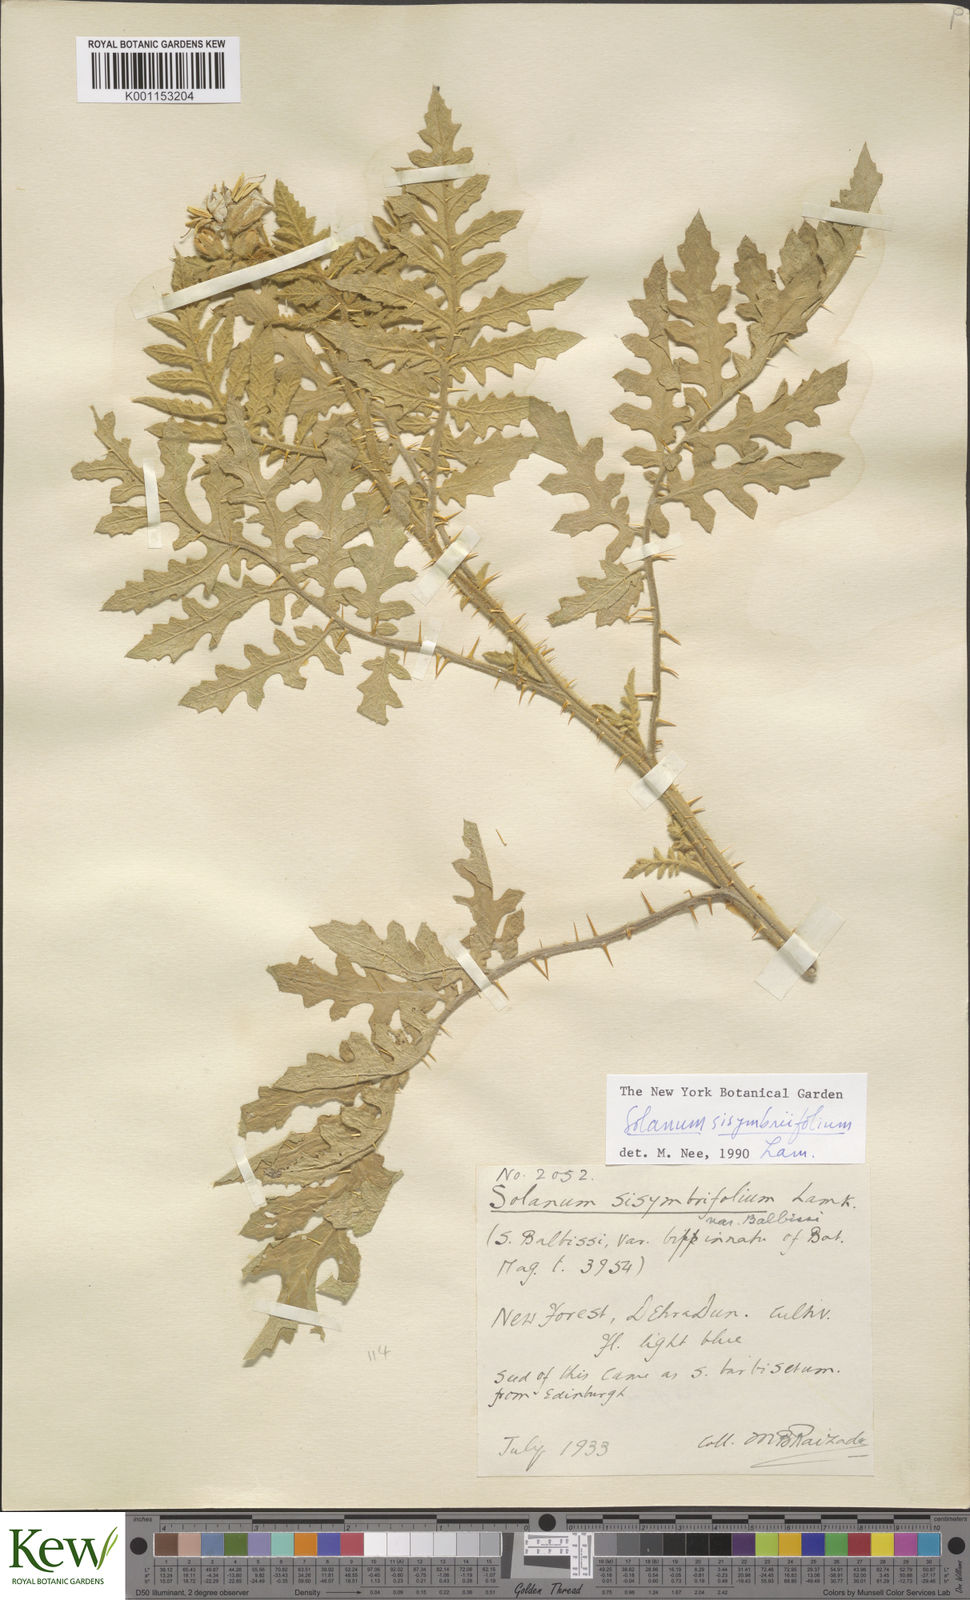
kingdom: Plantae
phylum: Tracheophyta
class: Magnoliopsida
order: Solanales
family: Solanaceae
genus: Solanum
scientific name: Solanum sisymbriifolium
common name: Red buffalo-bur
